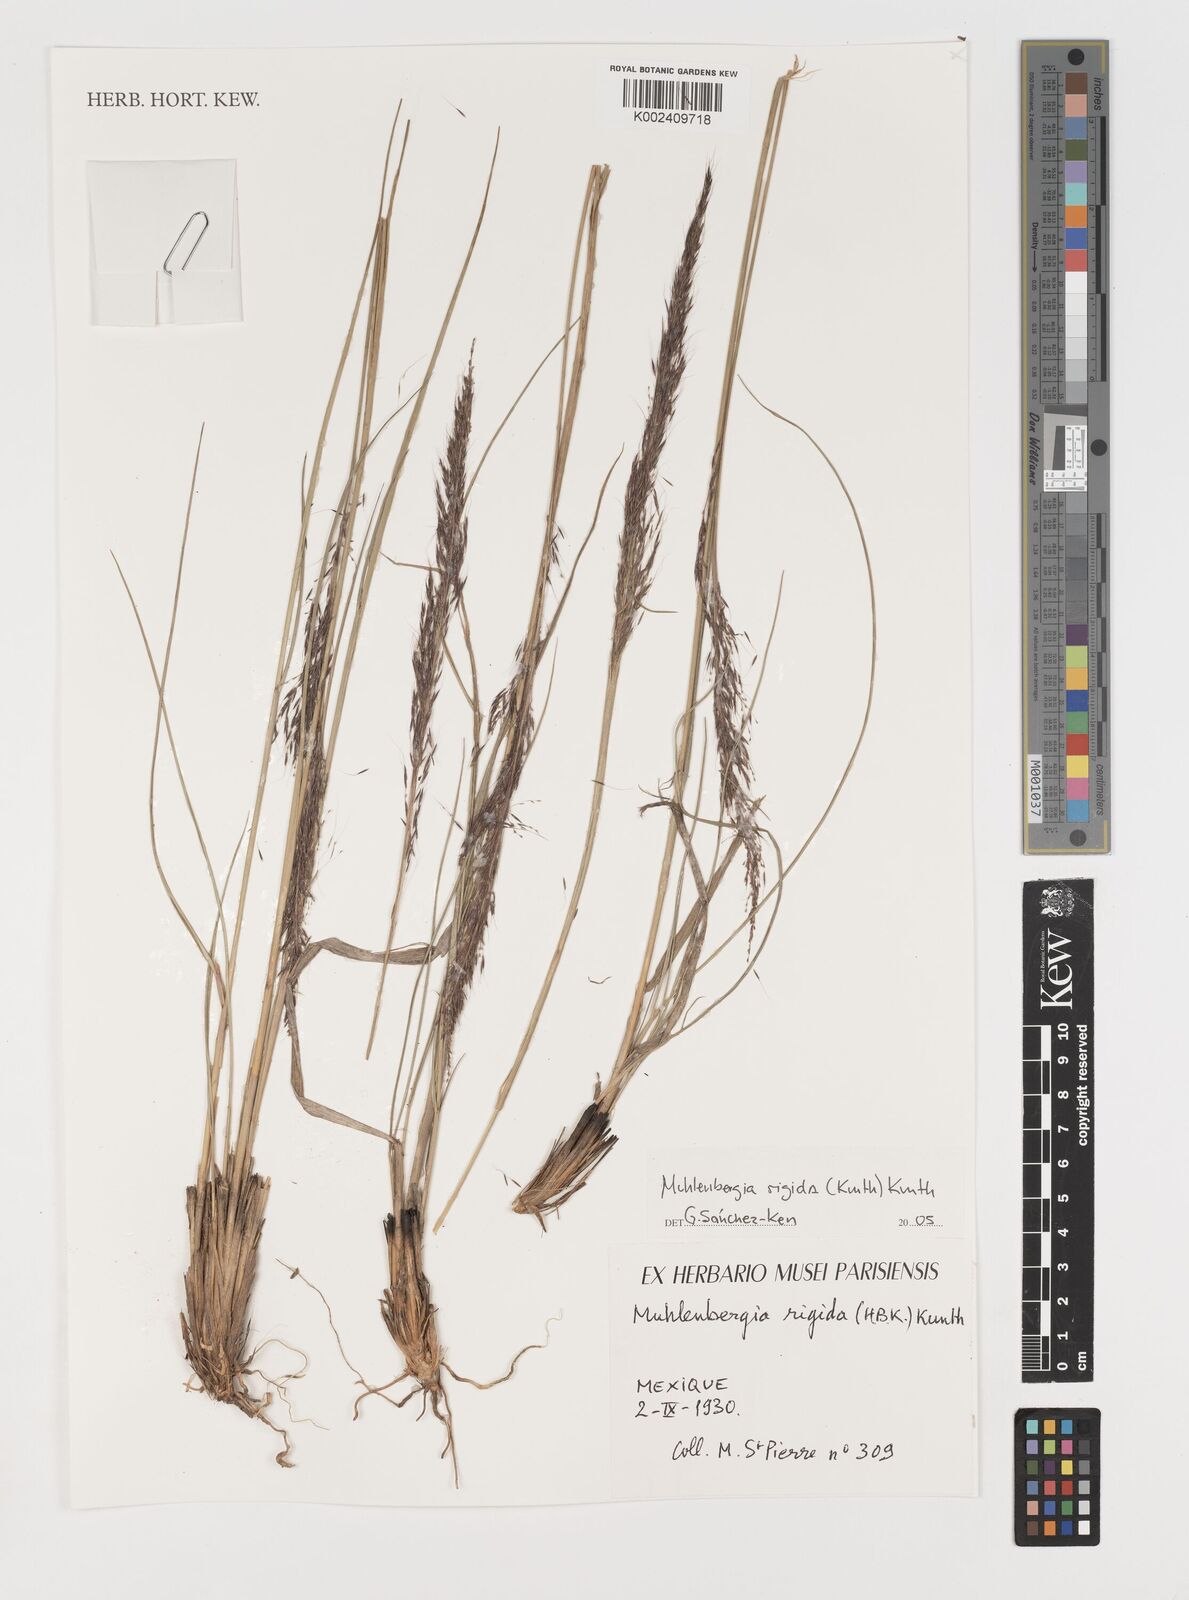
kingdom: Plantae
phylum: Tracheophyta
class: Liliopsida
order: Poales
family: Poaceae
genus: Muhlenbergia
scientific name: Muhlenbergia rigida
